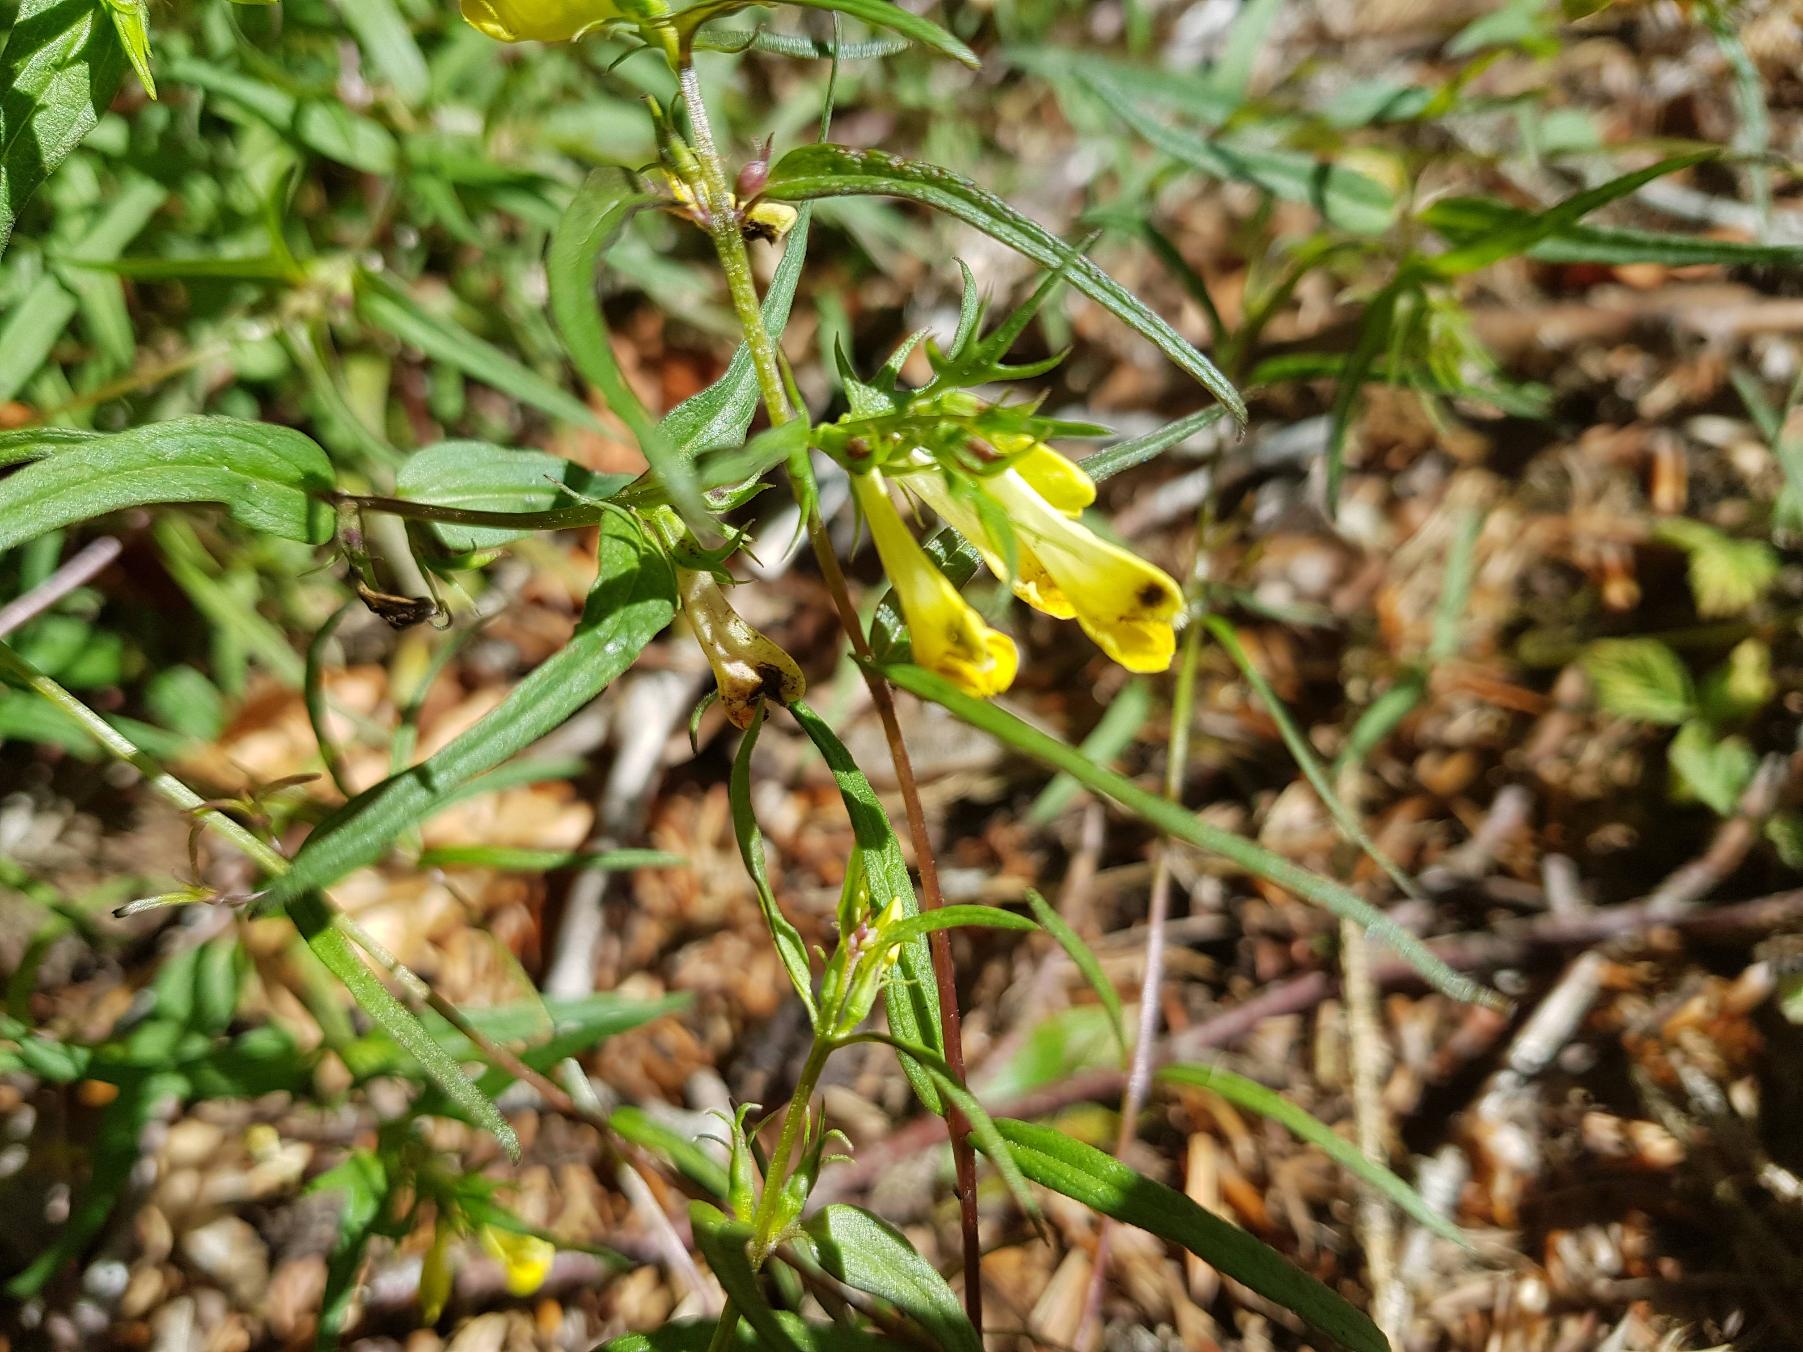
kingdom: Plantae
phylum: Tracheophyta
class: Magnoliopsida
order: Lamiales
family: Orobanchaceae
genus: Melampyrum
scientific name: Melampyrum pratense
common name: Almindelig kohvede
